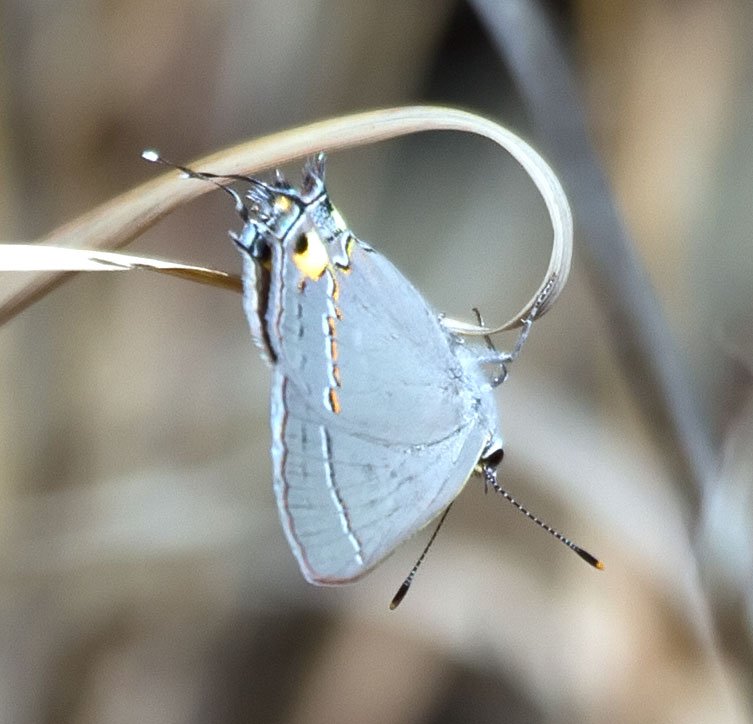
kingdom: Animalia
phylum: Arthropoda
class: Insecta
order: Lepidoptera
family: Lycaenidae
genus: Strymon
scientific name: Strymon melinus
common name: Gray Hairstreak
